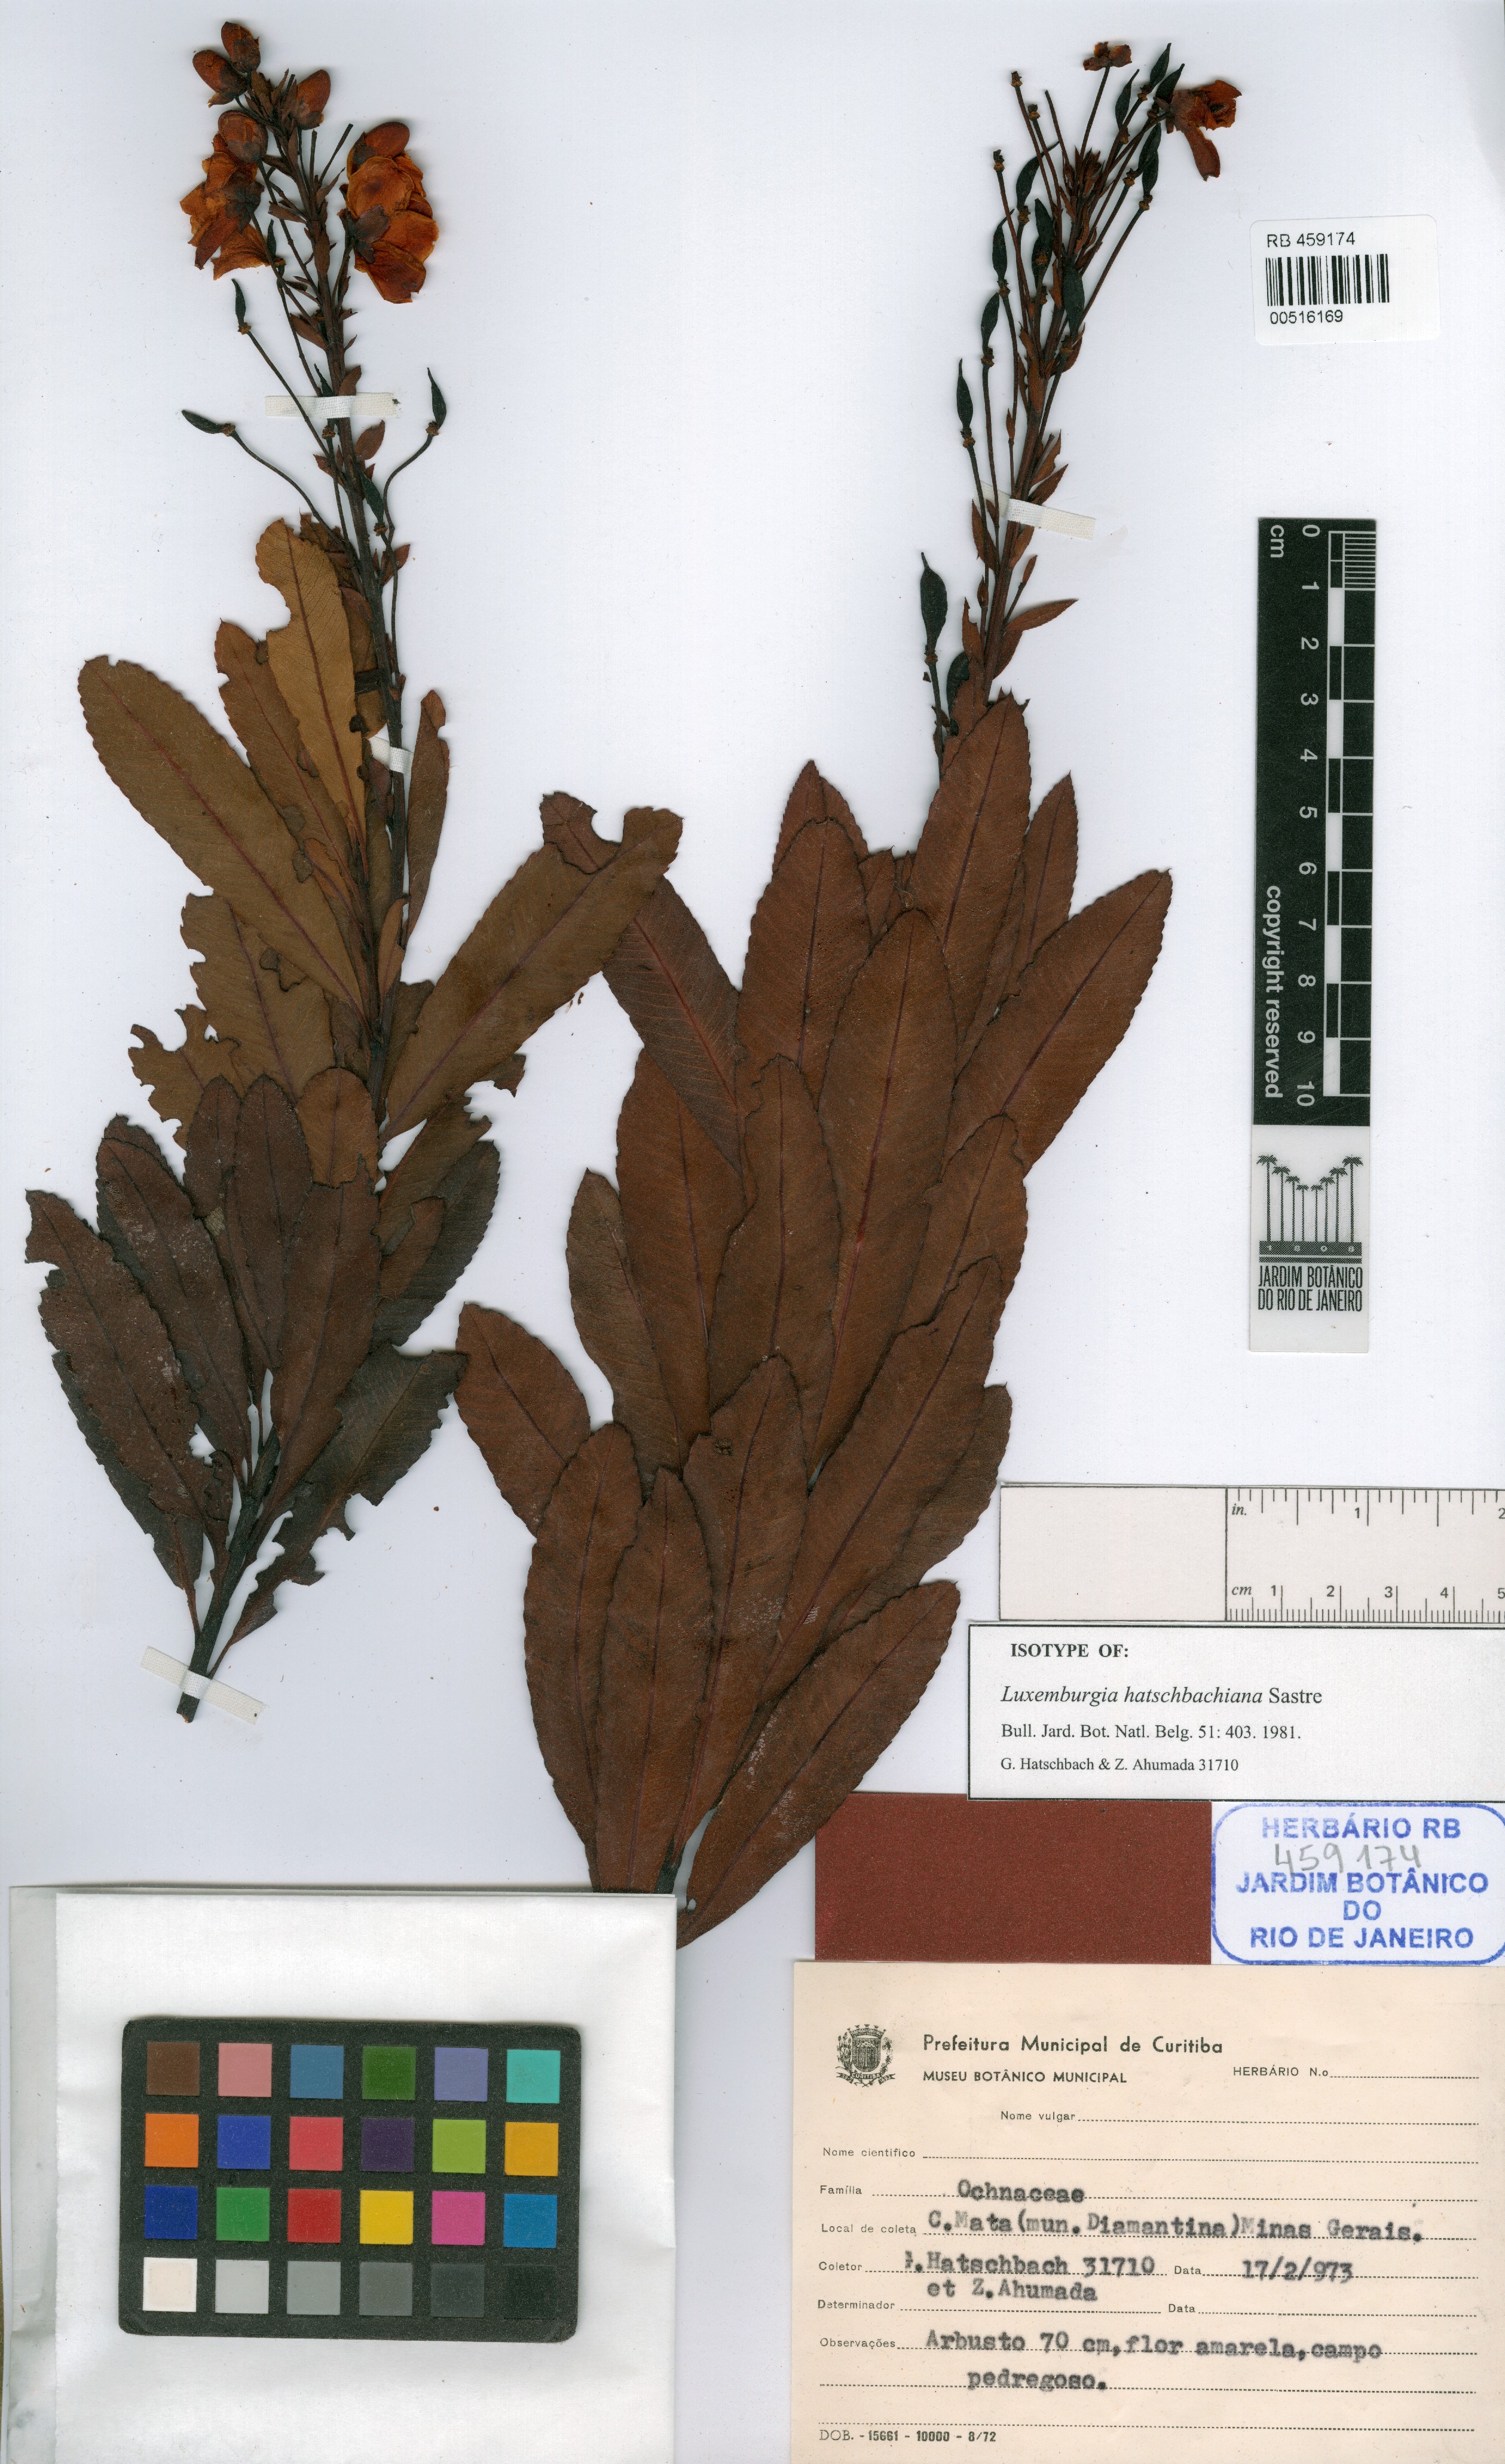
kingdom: Plantae
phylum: Tracheophyta
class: Magnoliopsida
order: Malpighiales
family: Ochnaceae
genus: Luxemburgia
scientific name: Luxemburgia hatschbachiana
